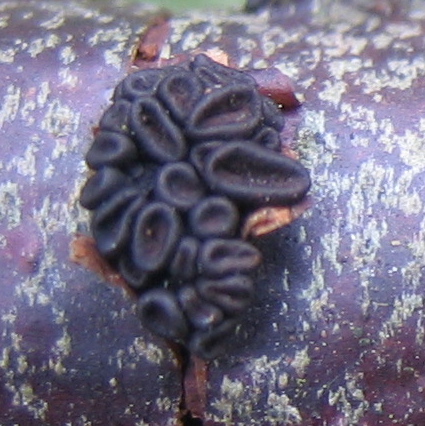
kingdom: Fungi
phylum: Ascomycota
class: Leotiomycetes
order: Helotiales
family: Godroniaceae
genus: Godronia
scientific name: Godronia ribis
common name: ribs-urneskive
